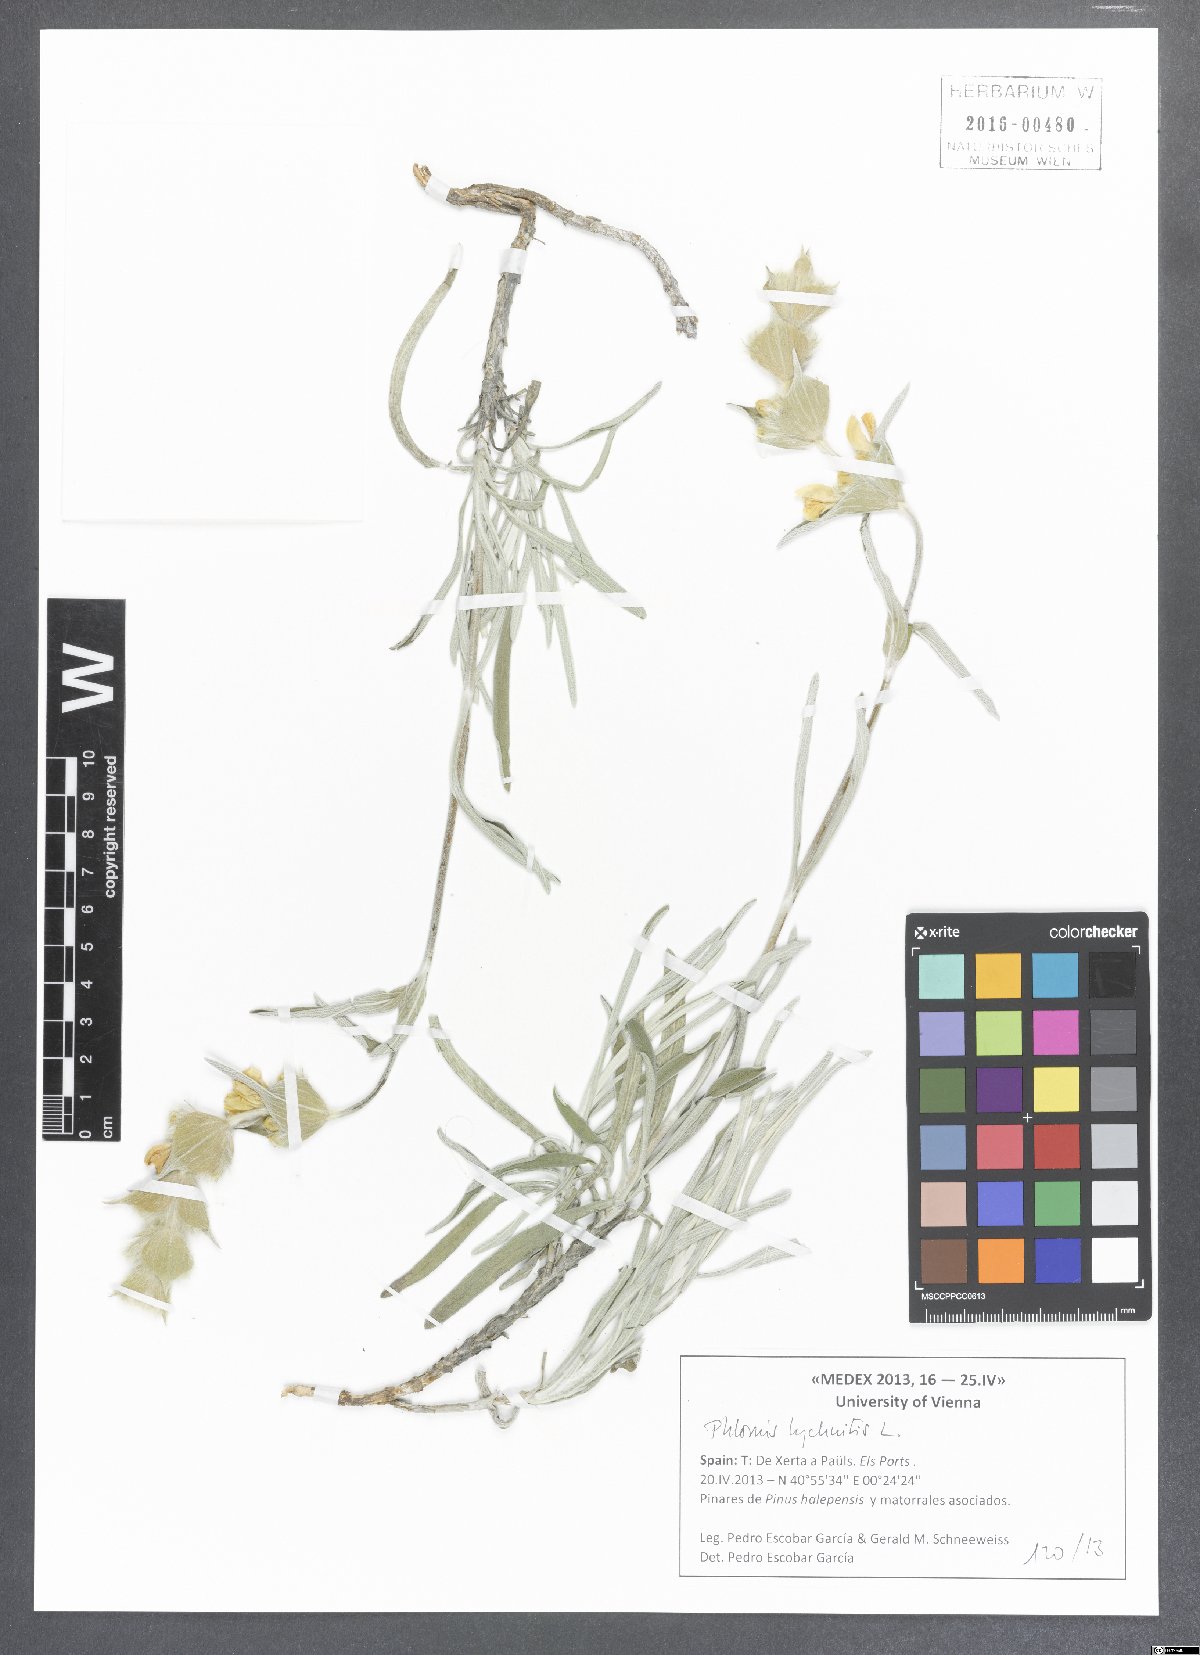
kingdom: Plantae
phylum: Tracheophyta
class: Magnoliopsida
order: Lamiales
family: Lamiaceae
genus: Phlomis
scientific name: Phlomis lychnitis
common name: Lampwickplant
